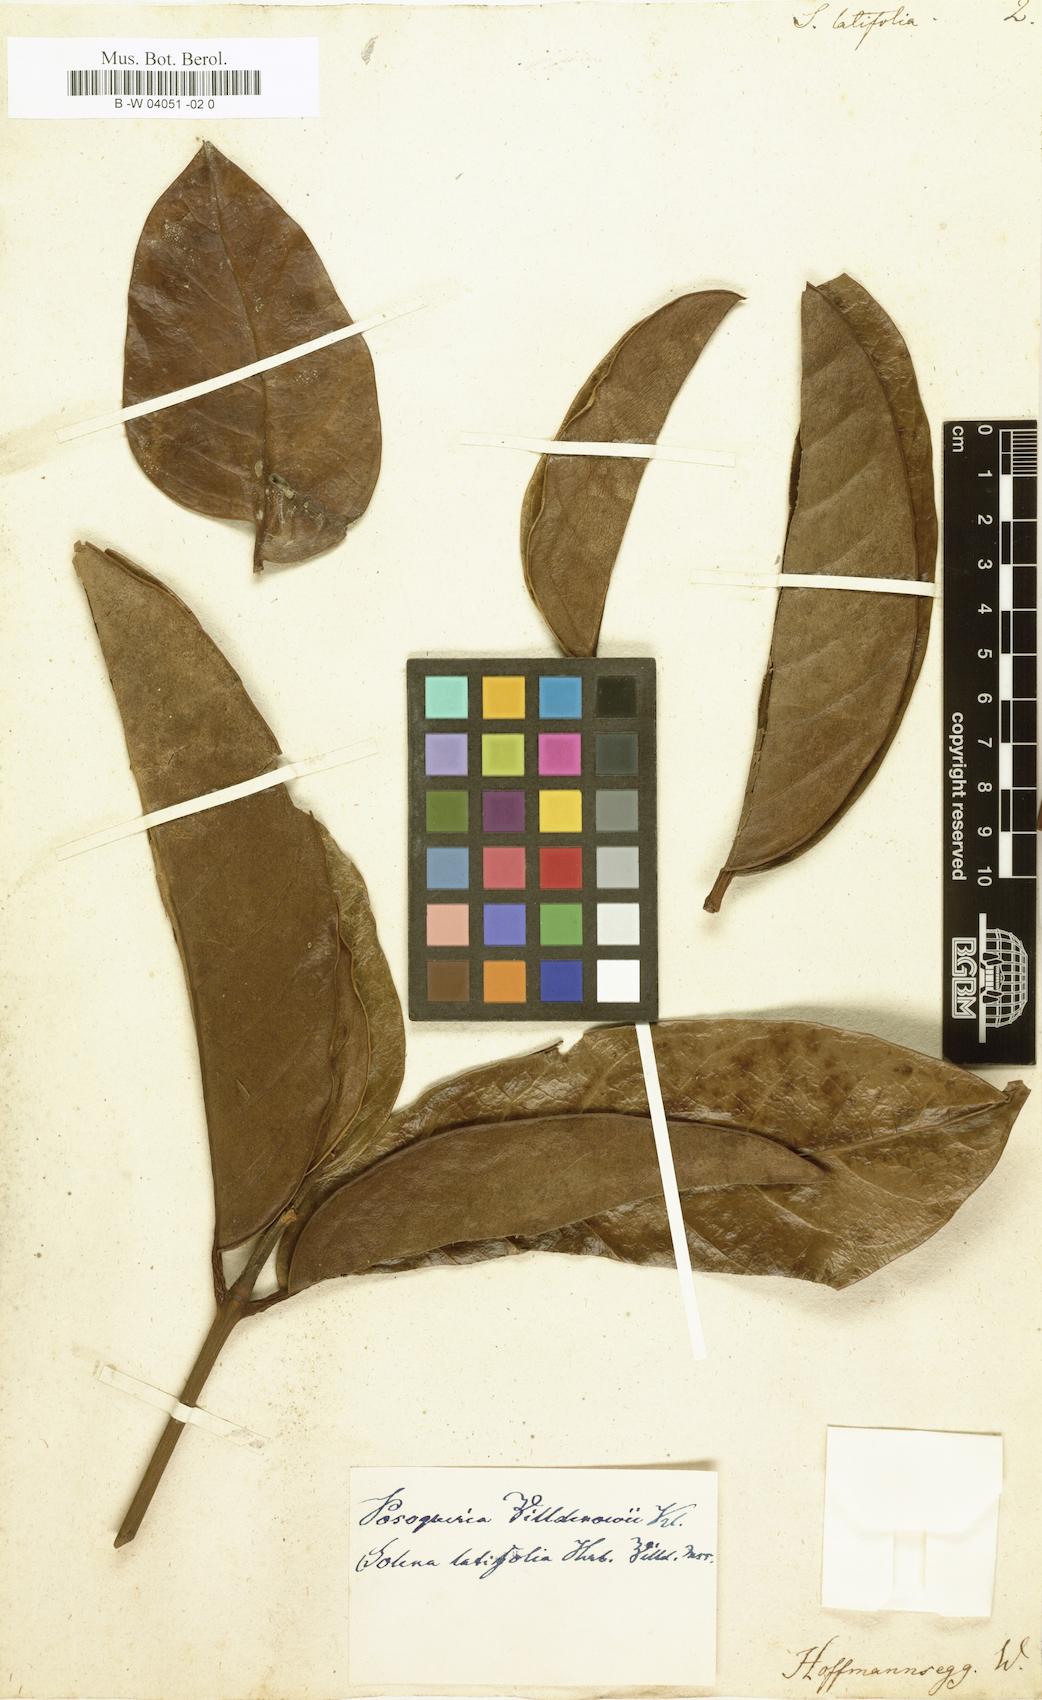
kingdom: Plantae
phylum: Tracheophyta
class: Magnoliopsida
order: Gentianales
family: Rubiaceae
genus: Posoqueria
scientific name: Posoqueria latifolia
